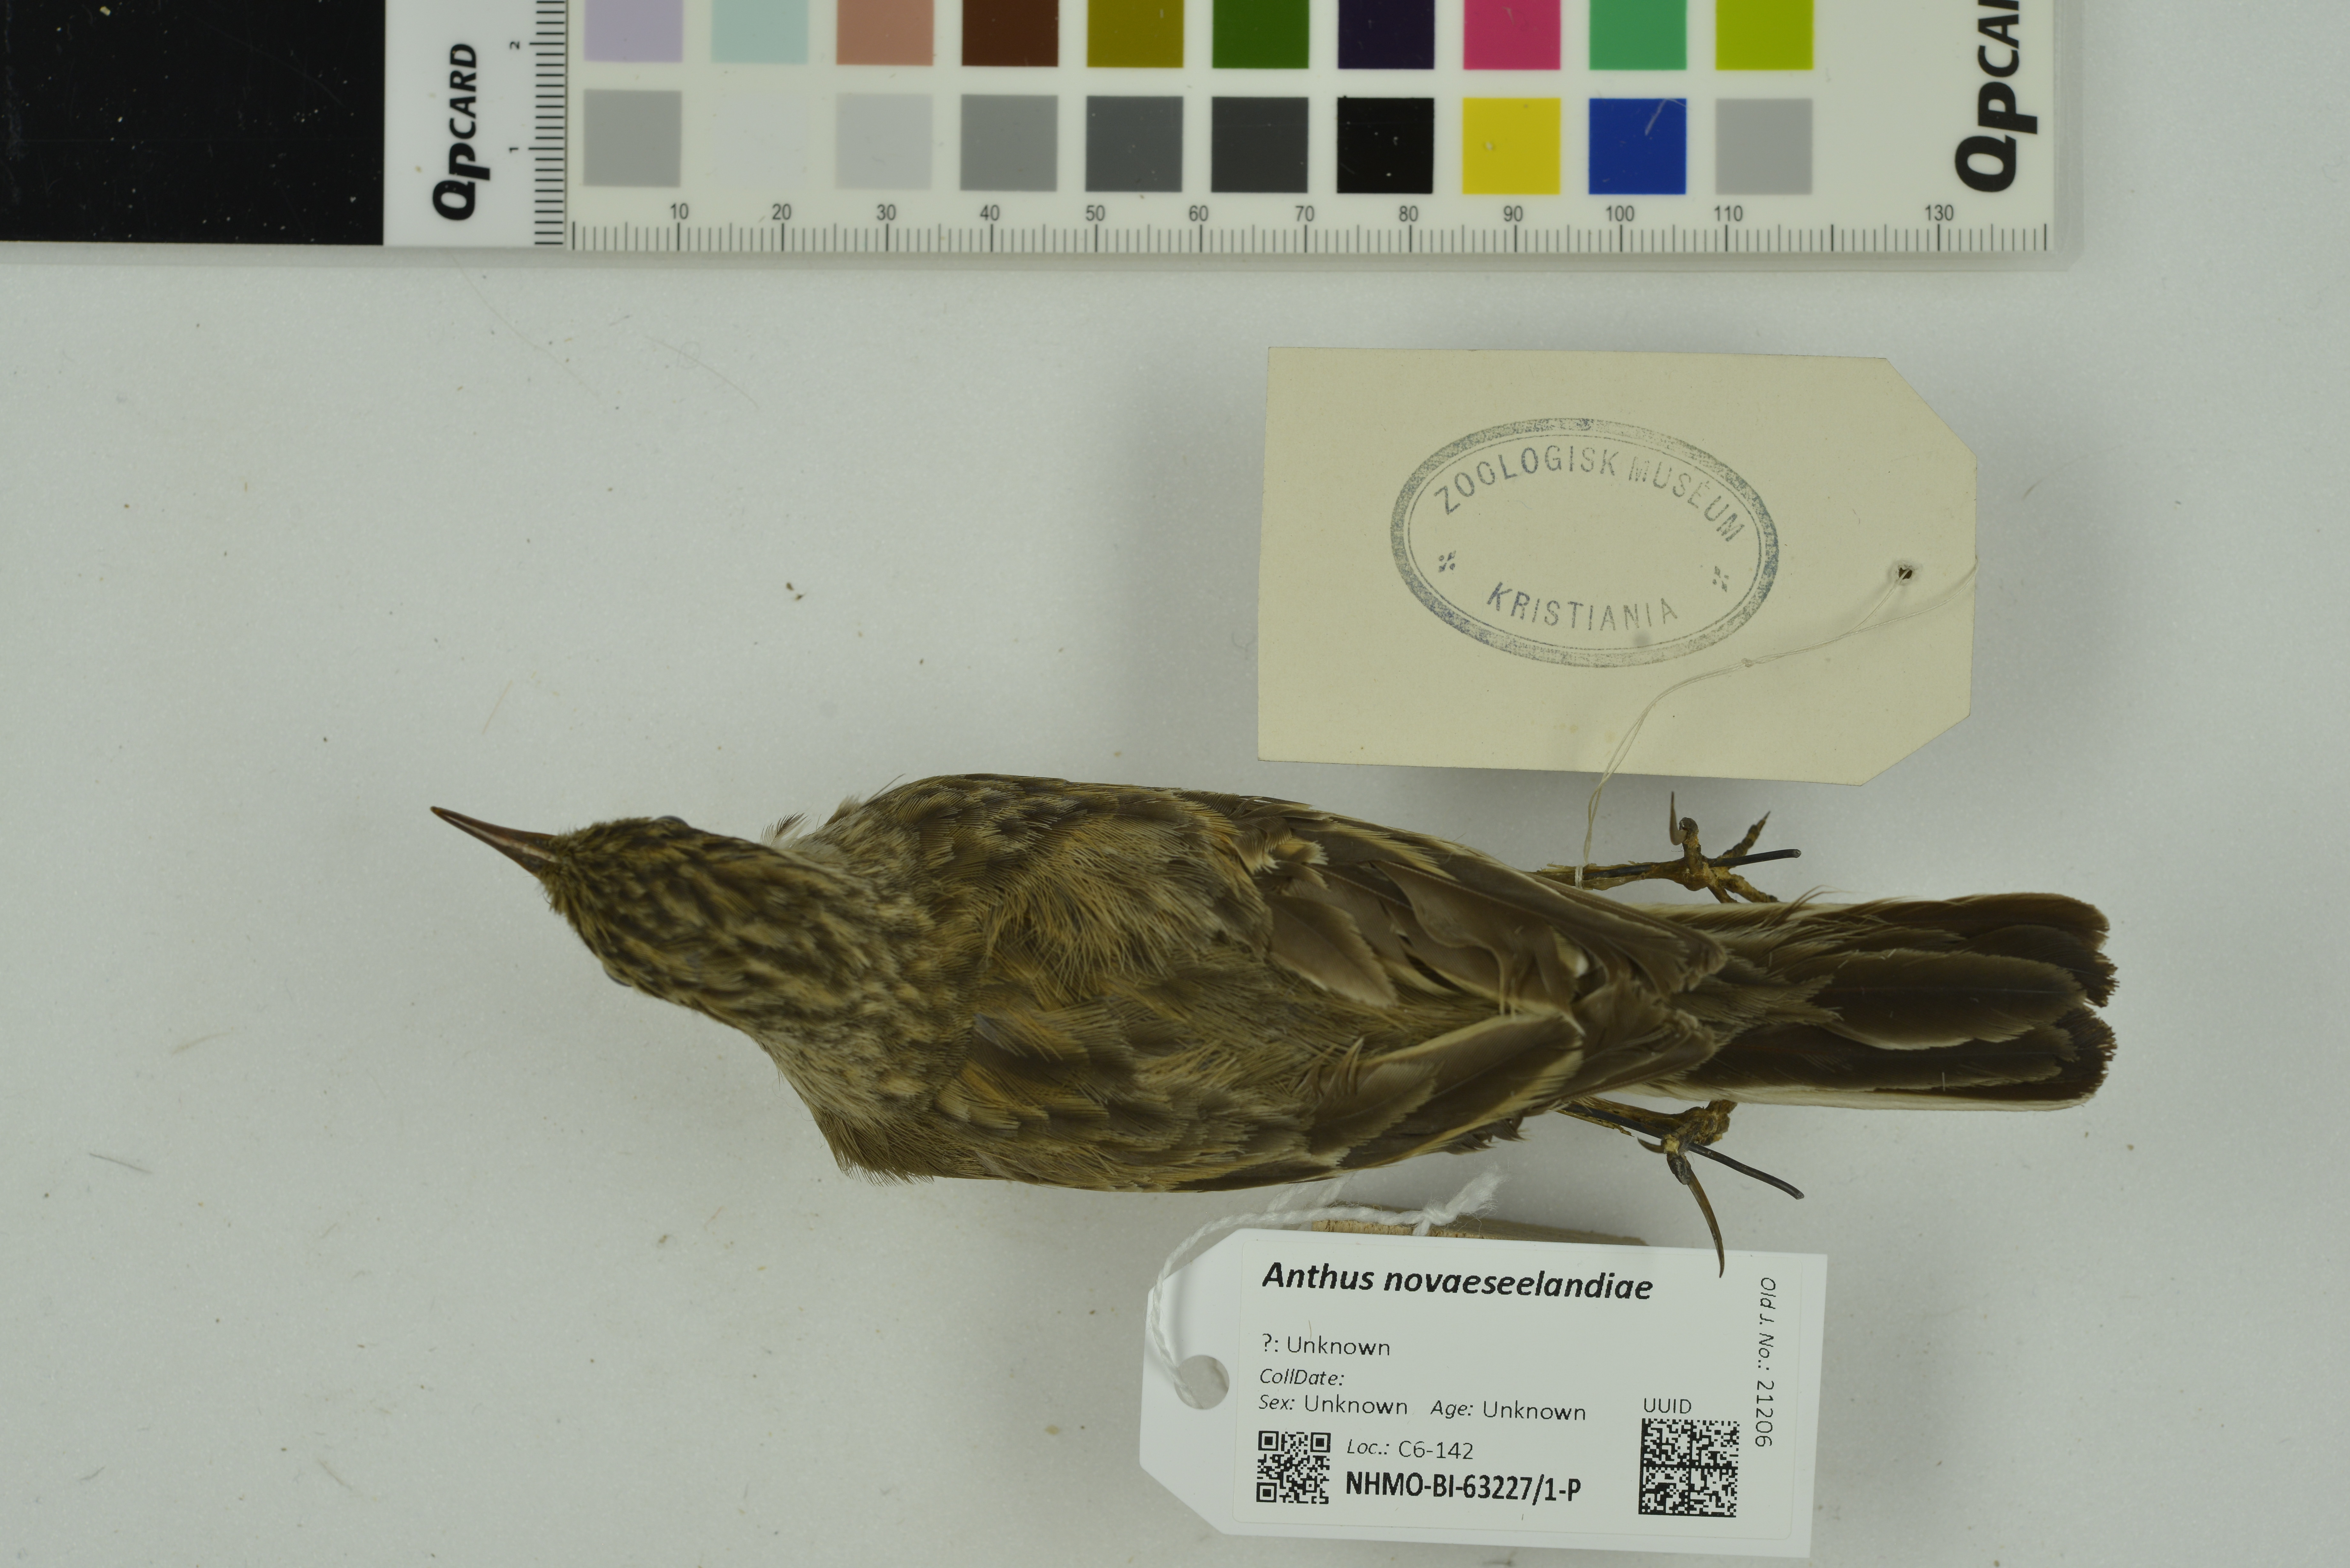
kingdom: Animalia
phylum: Chordata
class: Aves
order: Passeriformes
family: Motacillidae
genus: Anthus
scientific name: Anthus novaeseelandiae
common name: New zealand pipit
